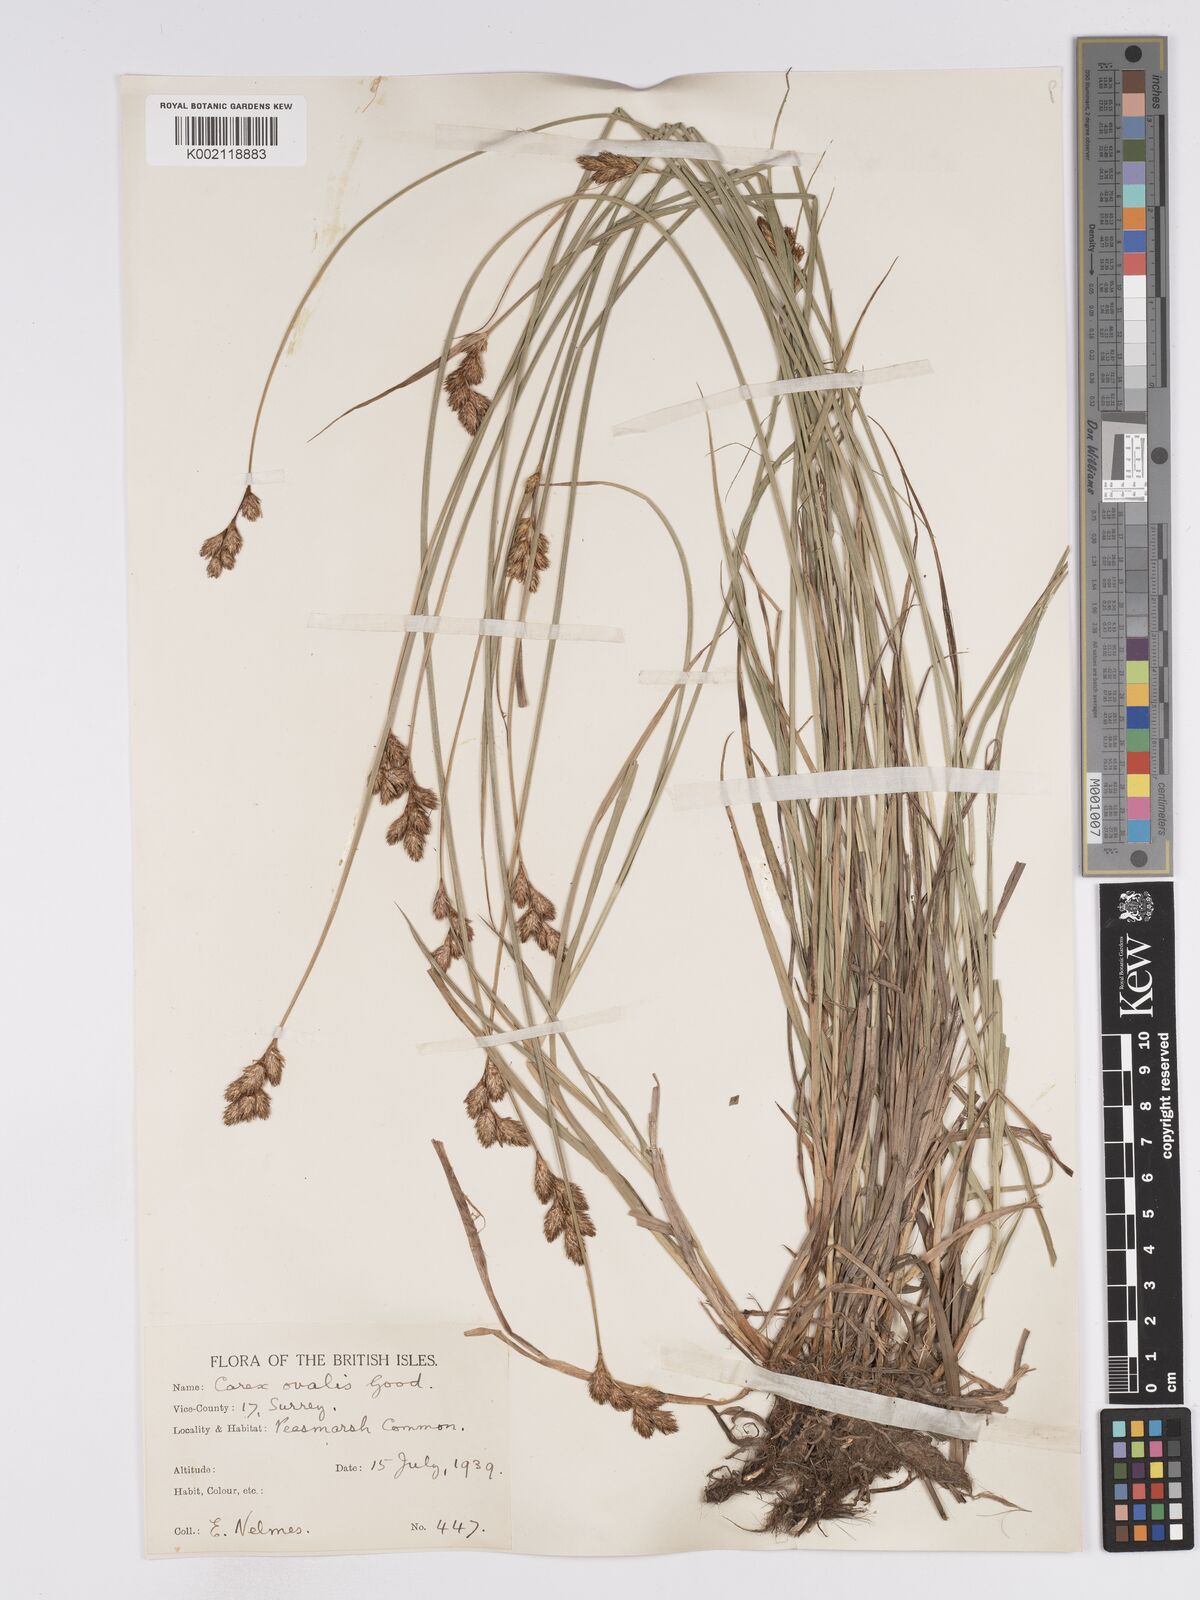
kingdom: Plantae
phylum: Tracheophyta
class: Liliopsida
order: Poales
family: Cyperaceae
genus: Carex
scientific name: Carex leporina
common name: Oval sedge
